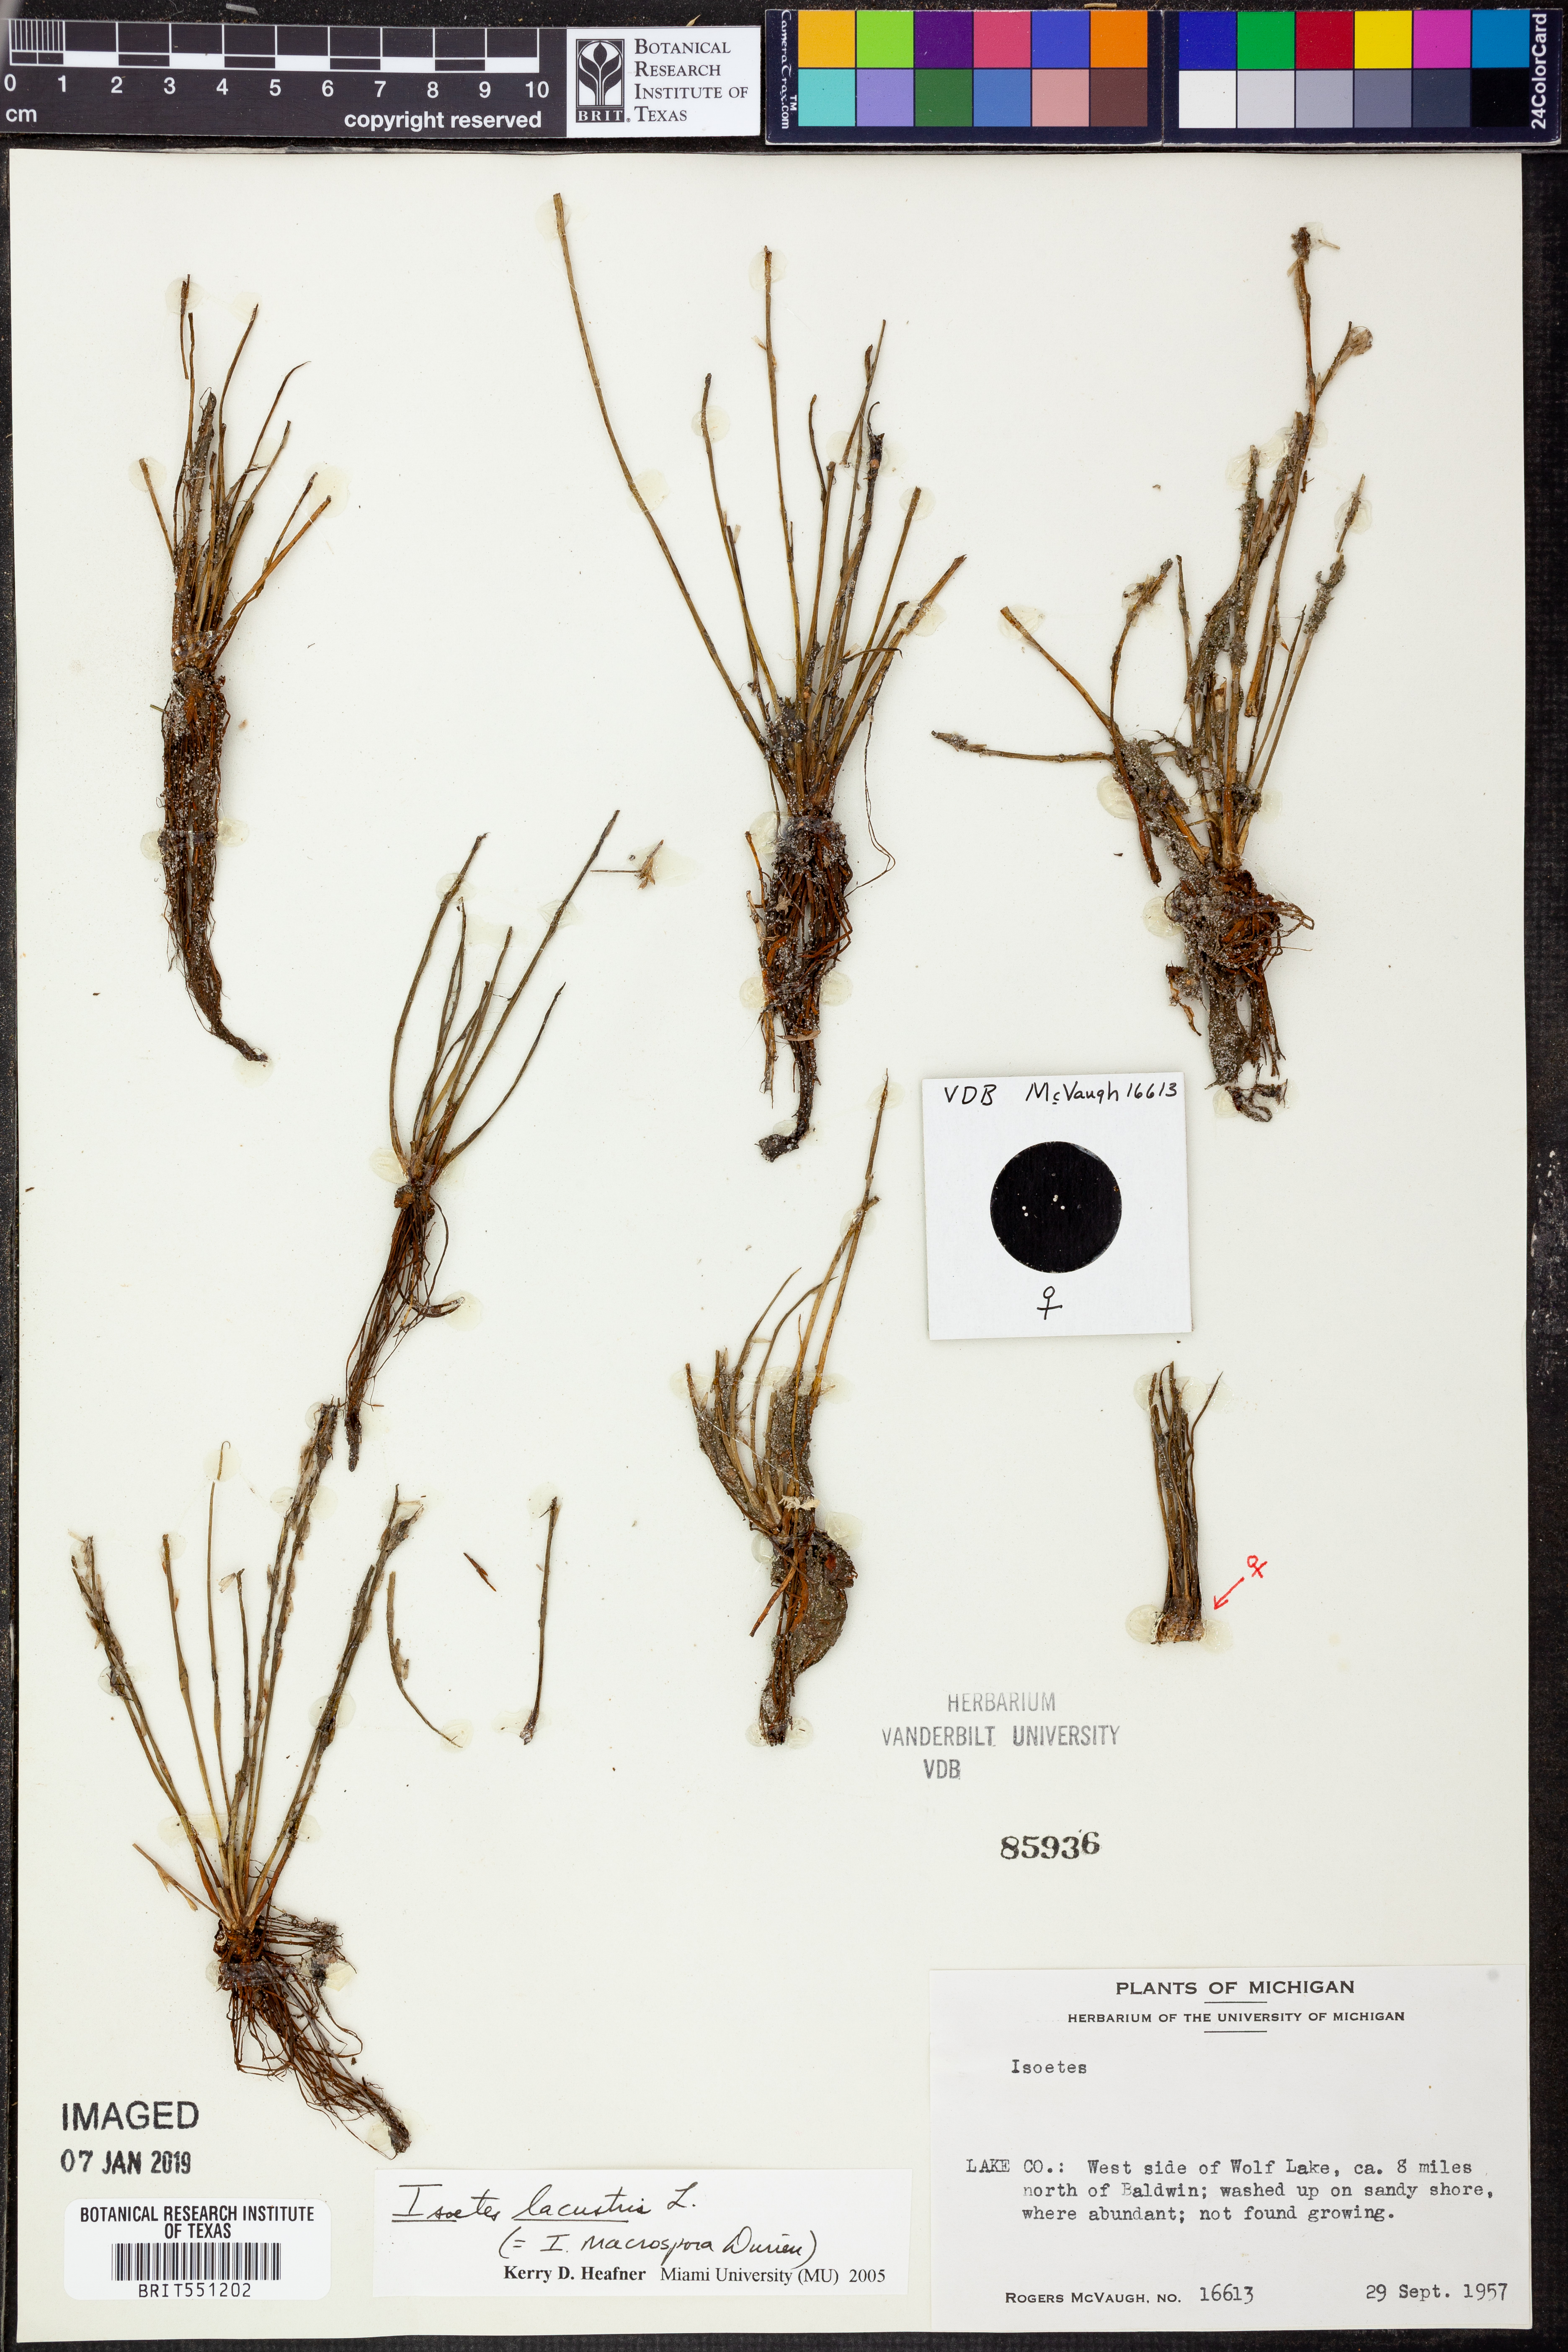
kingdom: Plantae
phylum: Tracheophyta
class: Lycopodiopsida
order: Isoetales
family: Isoetaceae
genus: Isoetes
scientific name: Isoetes lacustris
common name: Common quillwort
